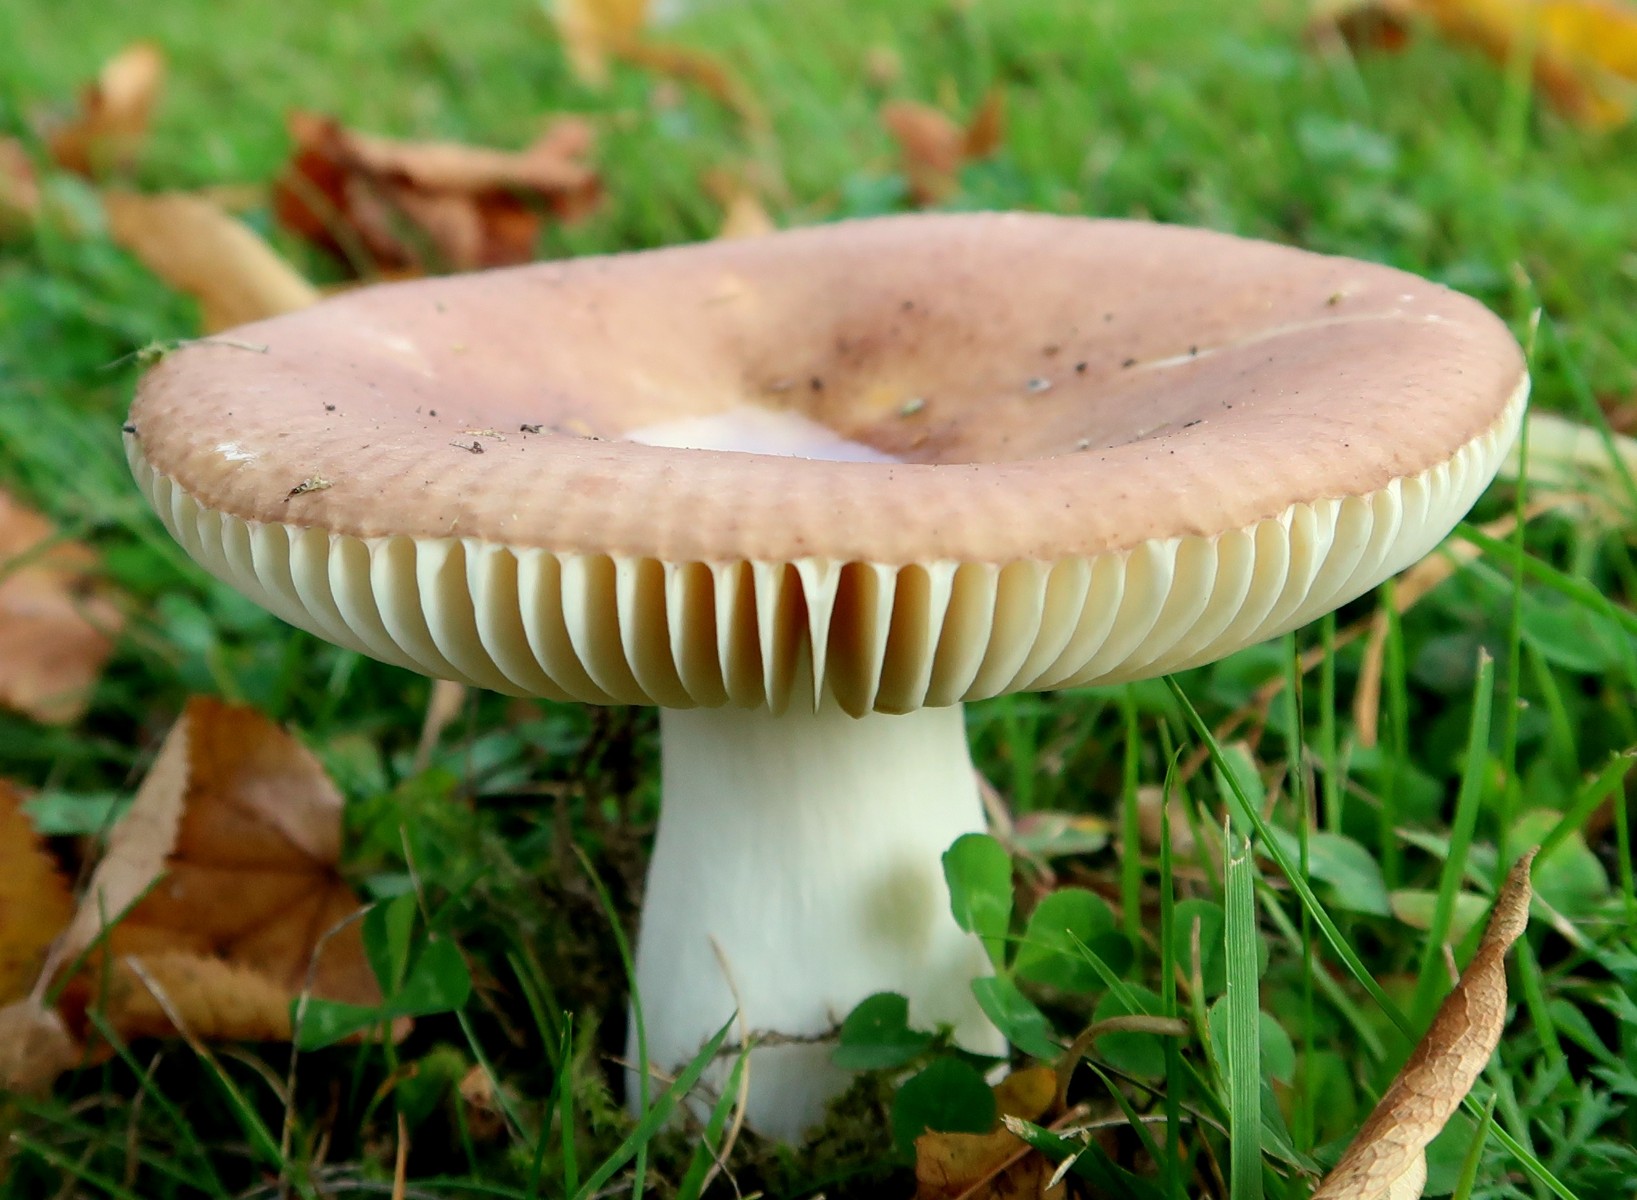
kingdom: Fungi
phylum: Basidiomycota
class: Agaricomycetes
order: Russulales
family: Russulaceae
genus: Russula
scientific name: Russula
